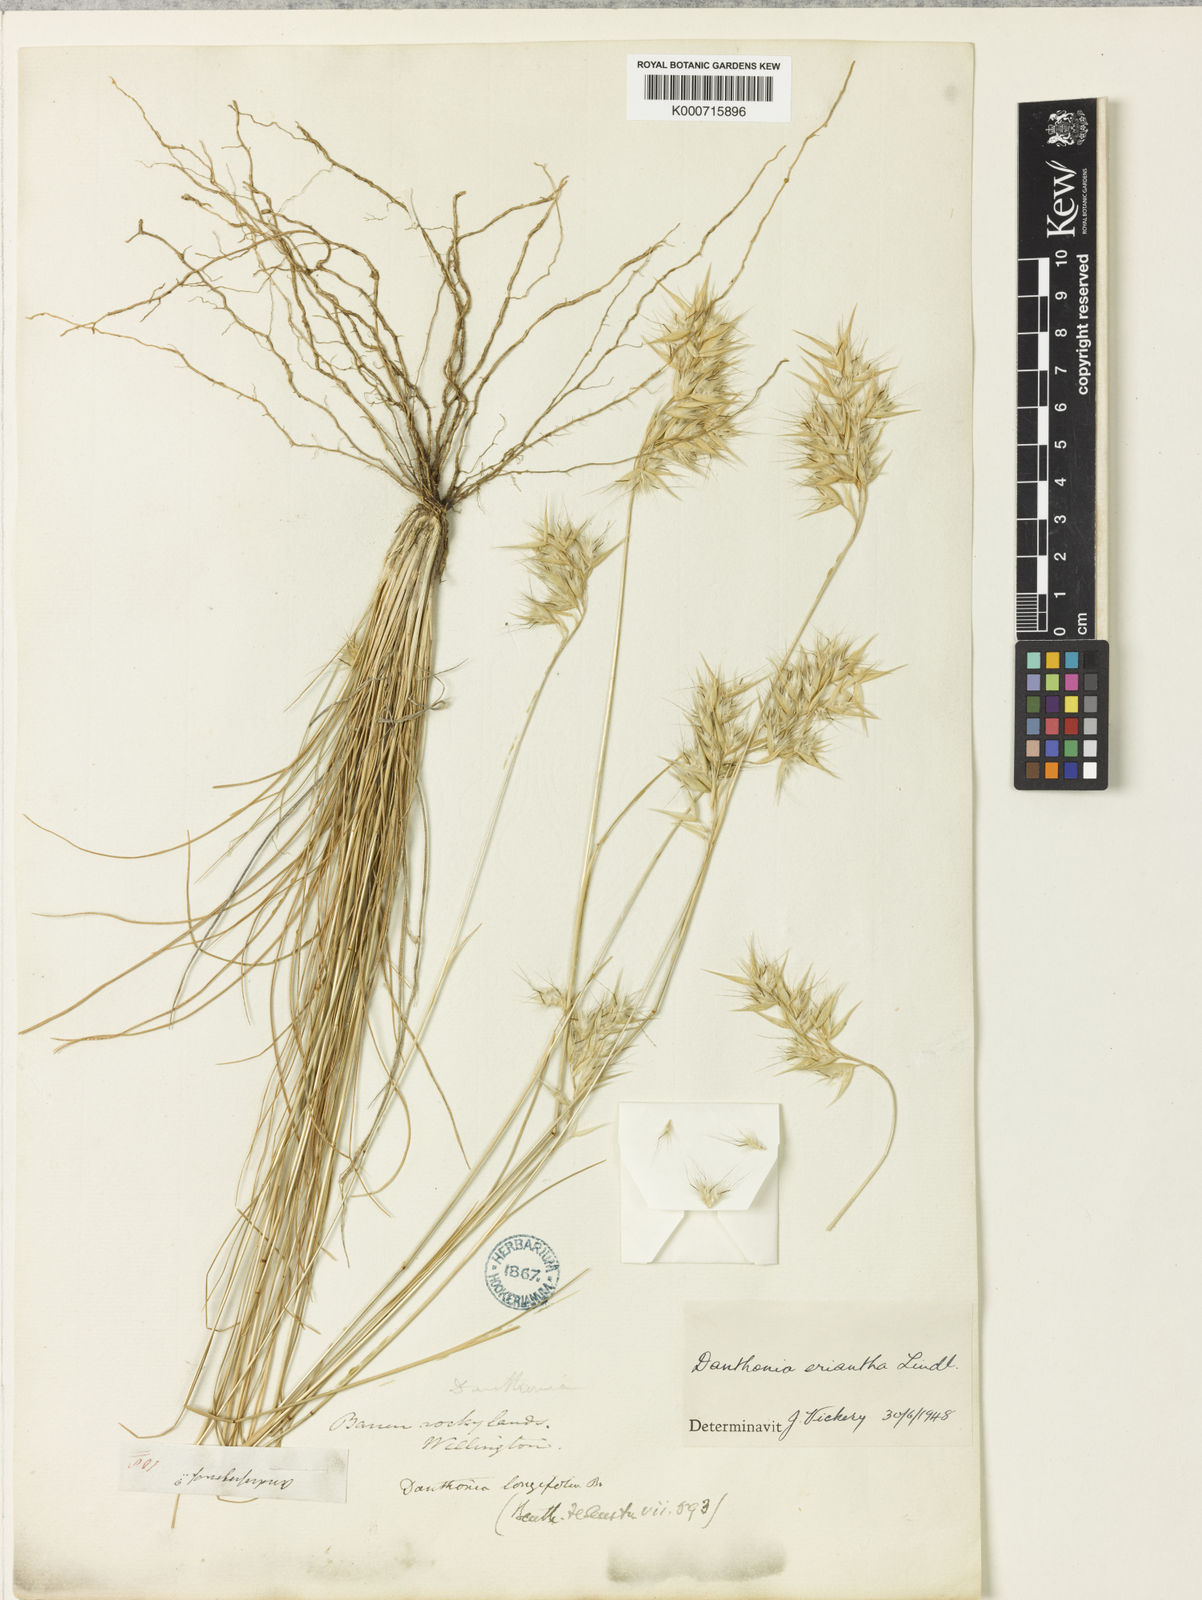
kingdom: Plantae
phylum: Tracheophyta
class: Liliopsida
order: Poales
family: Poaceae
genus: Rytidosperma
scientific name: Rytidosperma erianthum
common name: Hill wallaby grass
